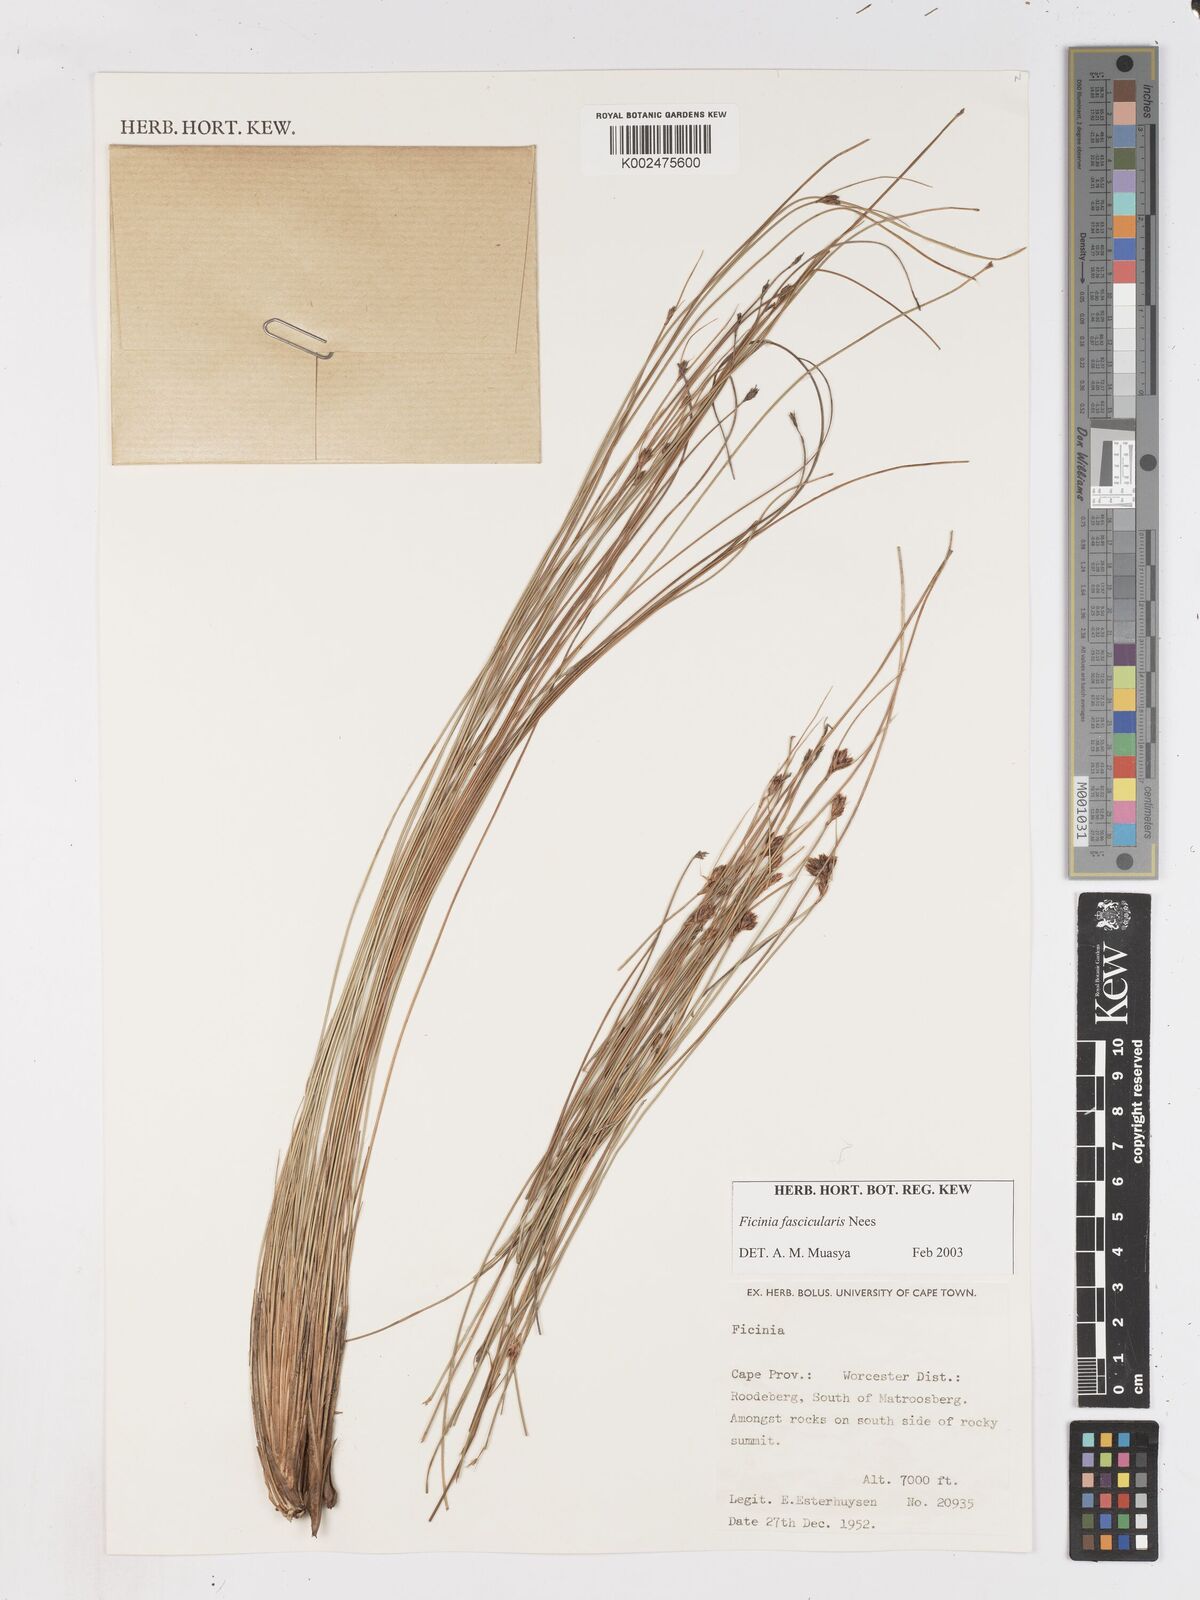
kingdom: Plantae
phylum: Tracheophyta
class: Liliopsida
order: Poales
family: Cyperaceae
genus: Ficinia
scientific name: Ficinia fascicularis
